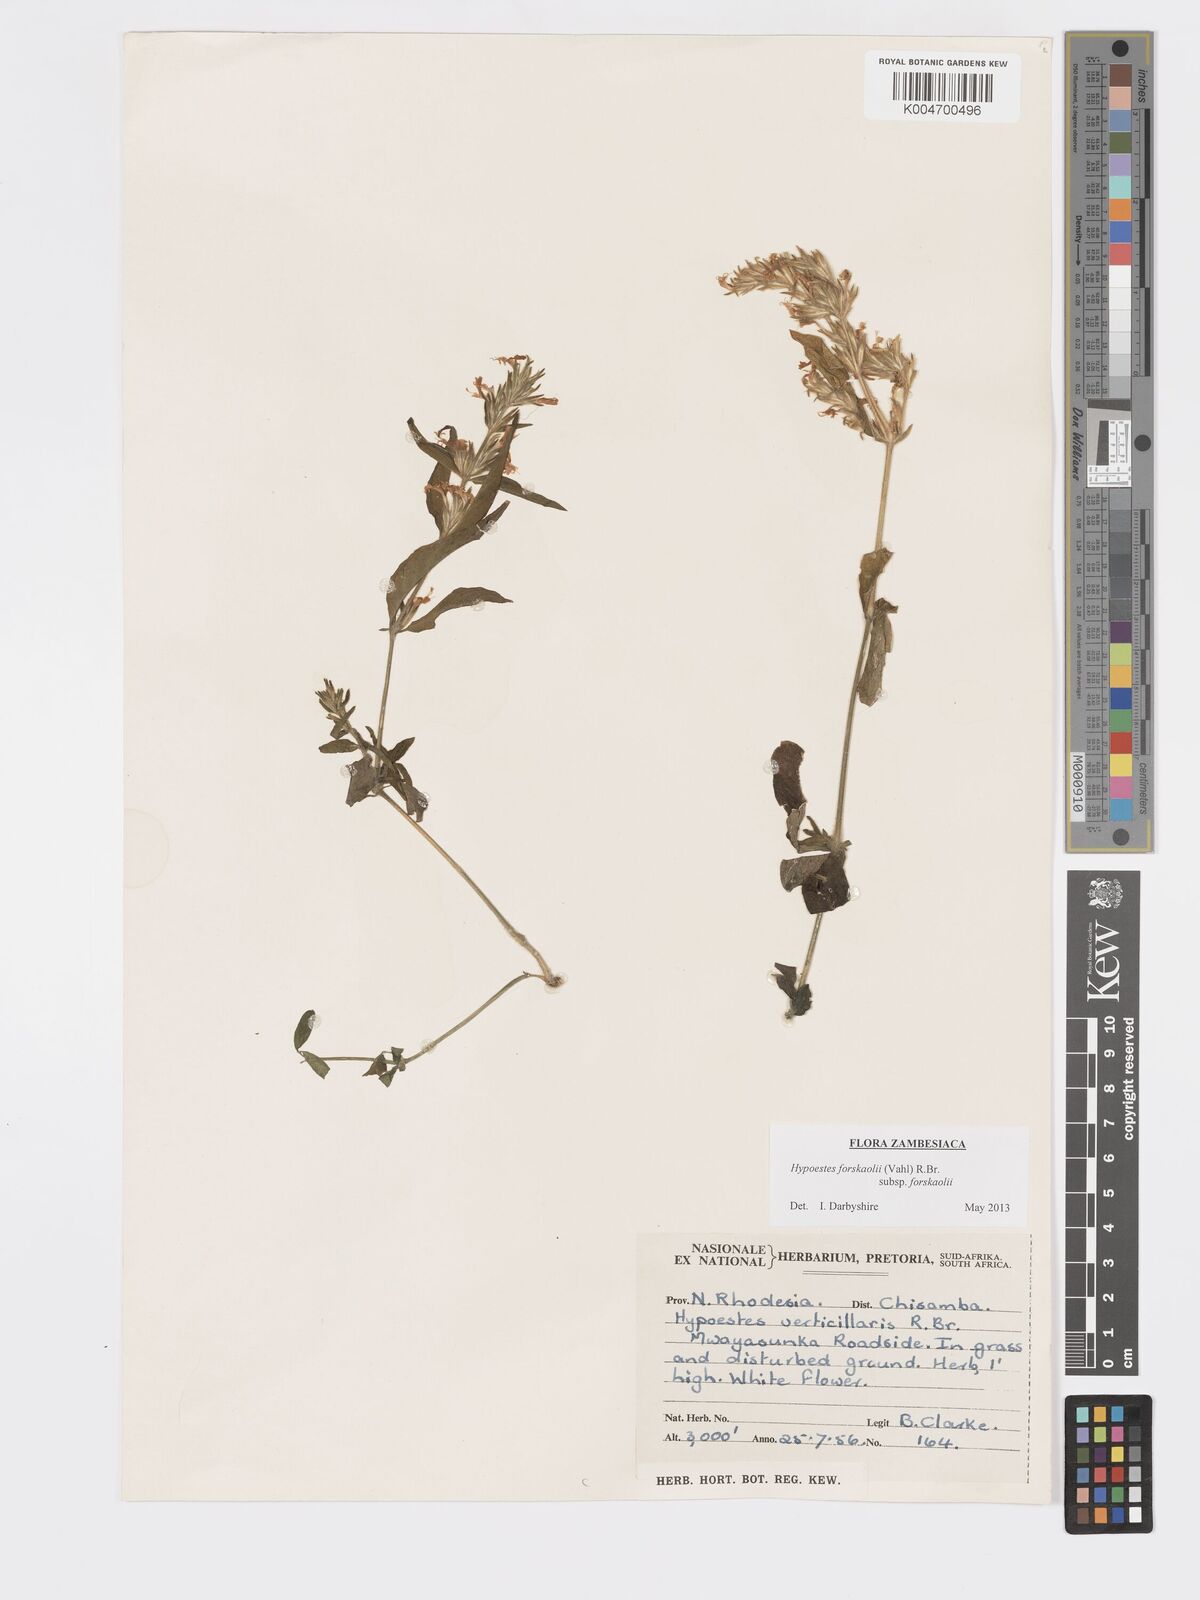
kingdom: Plantae
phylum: Tracheophyta
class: Magnoliopsida
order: Lamiales
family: Acanthaceae
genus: Hypoestes
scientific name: Hypoestes forskaolii
